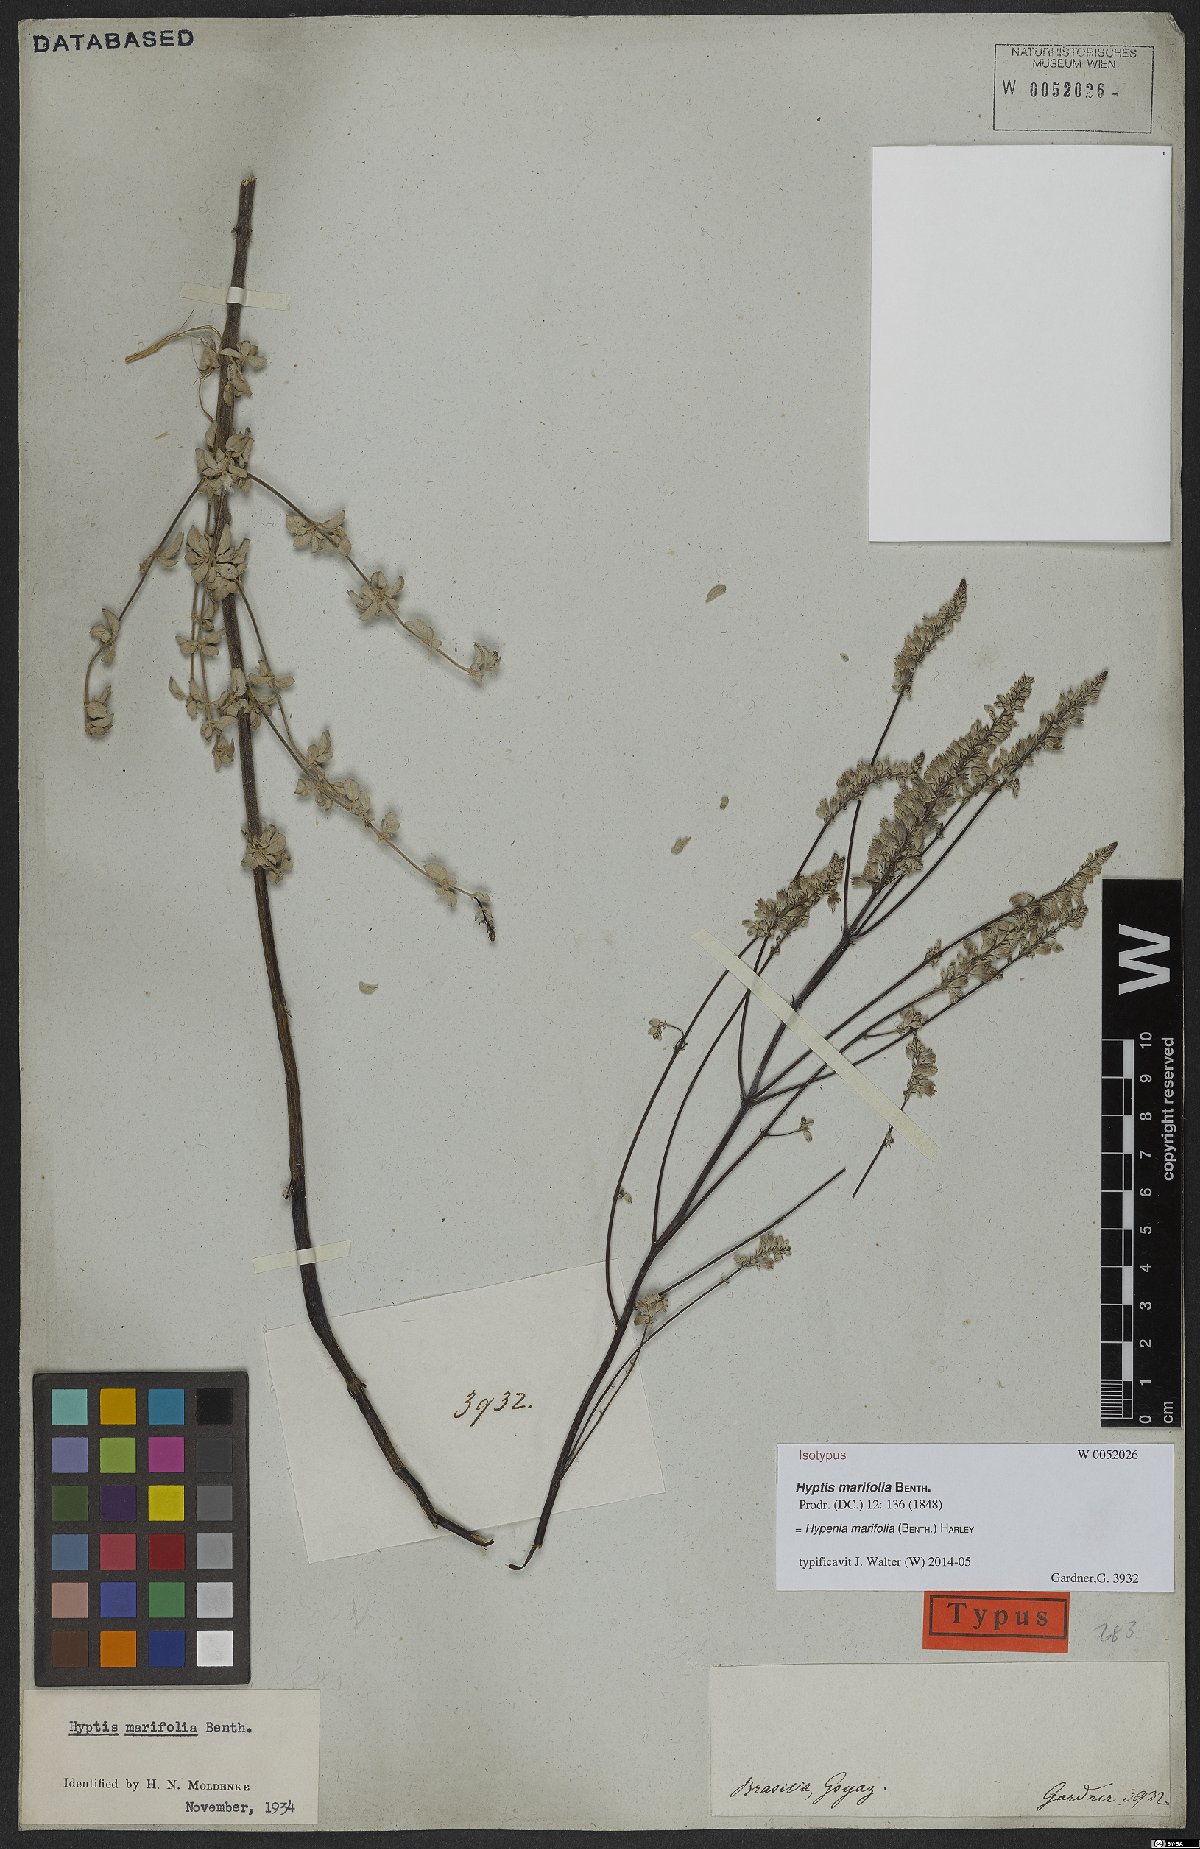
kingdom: Plantae
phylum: Tracheophyta
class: Magnoliopsida
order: Lamiales
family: Lamiaceae
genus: Hypenia
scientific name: Hypenia marifolia
